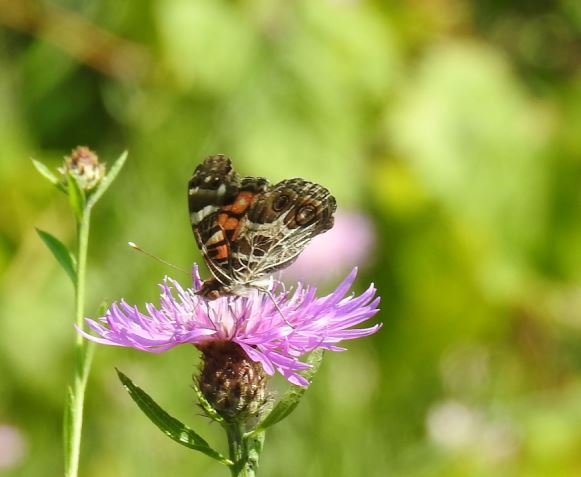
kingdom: Animalia
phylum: Arthropoda
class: Insecta
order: Lepidoptera
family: Nymphalidae
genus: Vanessa
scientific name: Vanessa virginiensis
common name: American Lady
